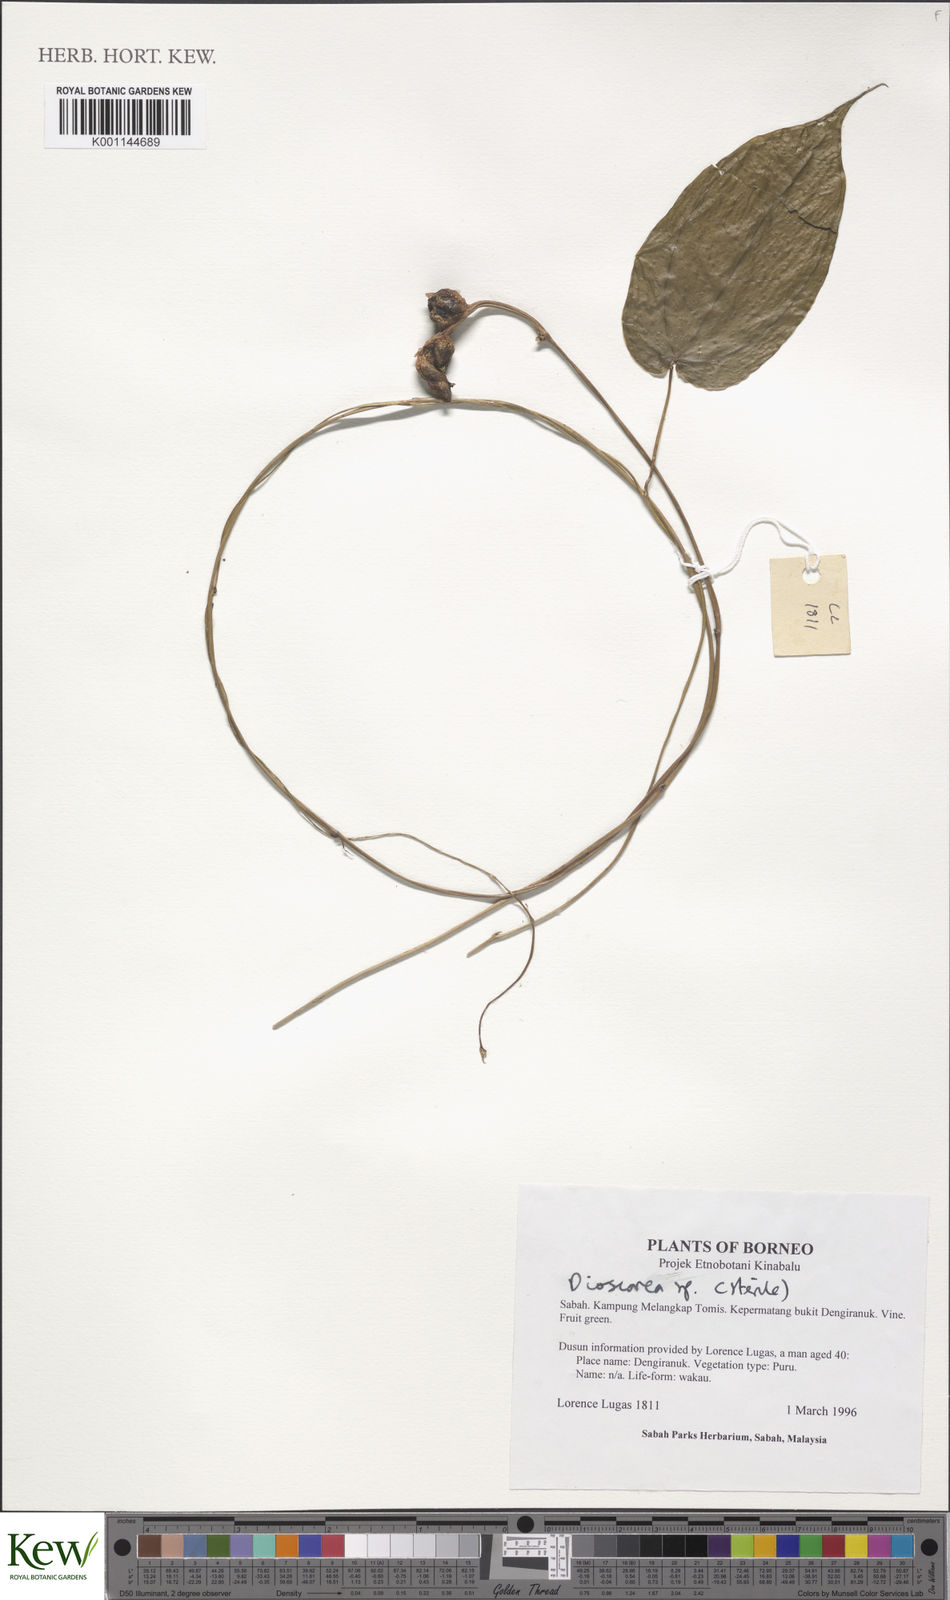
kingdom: Plantae
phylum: Tracheophyta
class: Liliopsida
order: Dioscoreales
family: Dioscoreaceae
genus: Dioscorea
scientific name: Dioscorea
